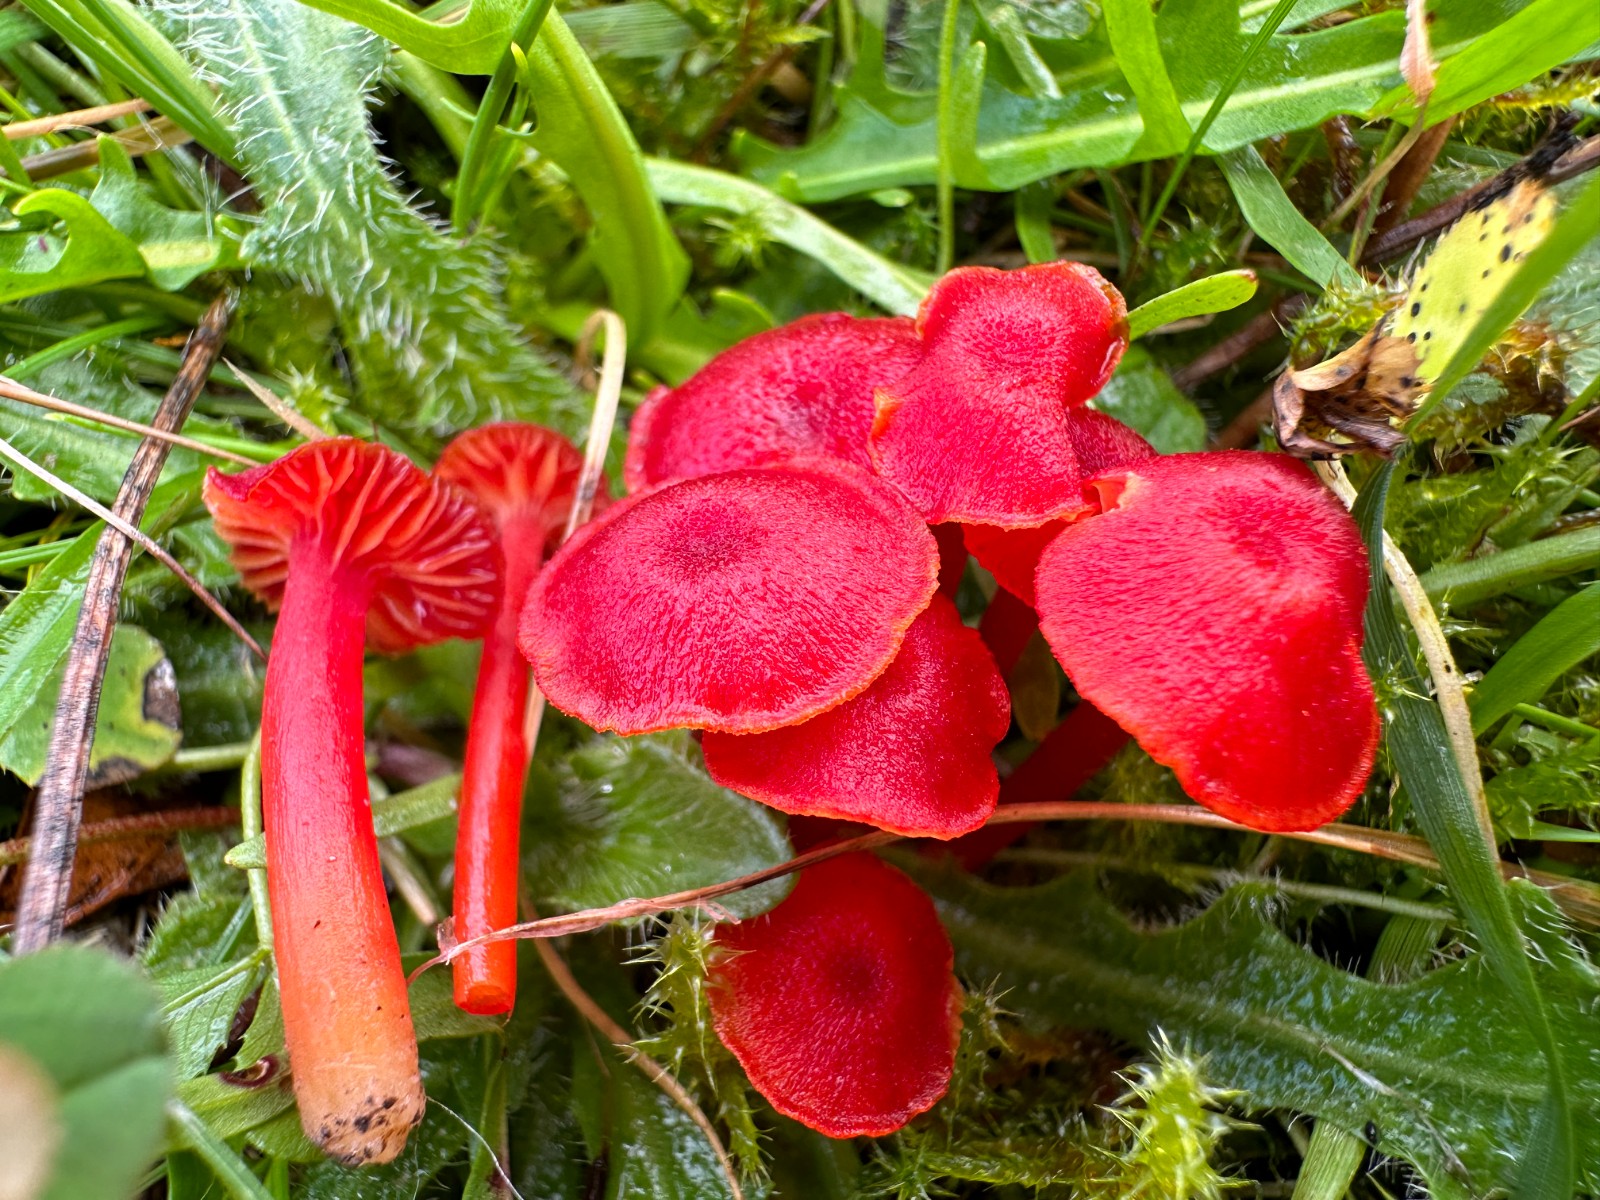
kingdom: Fungi
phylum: Basidiomycota
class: Agaricomycetes
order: Agaricales
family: Hygrophoraceae
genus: Hygrocybe
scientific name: Hygrocybe helobia
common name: hvidløgs-vokshat
